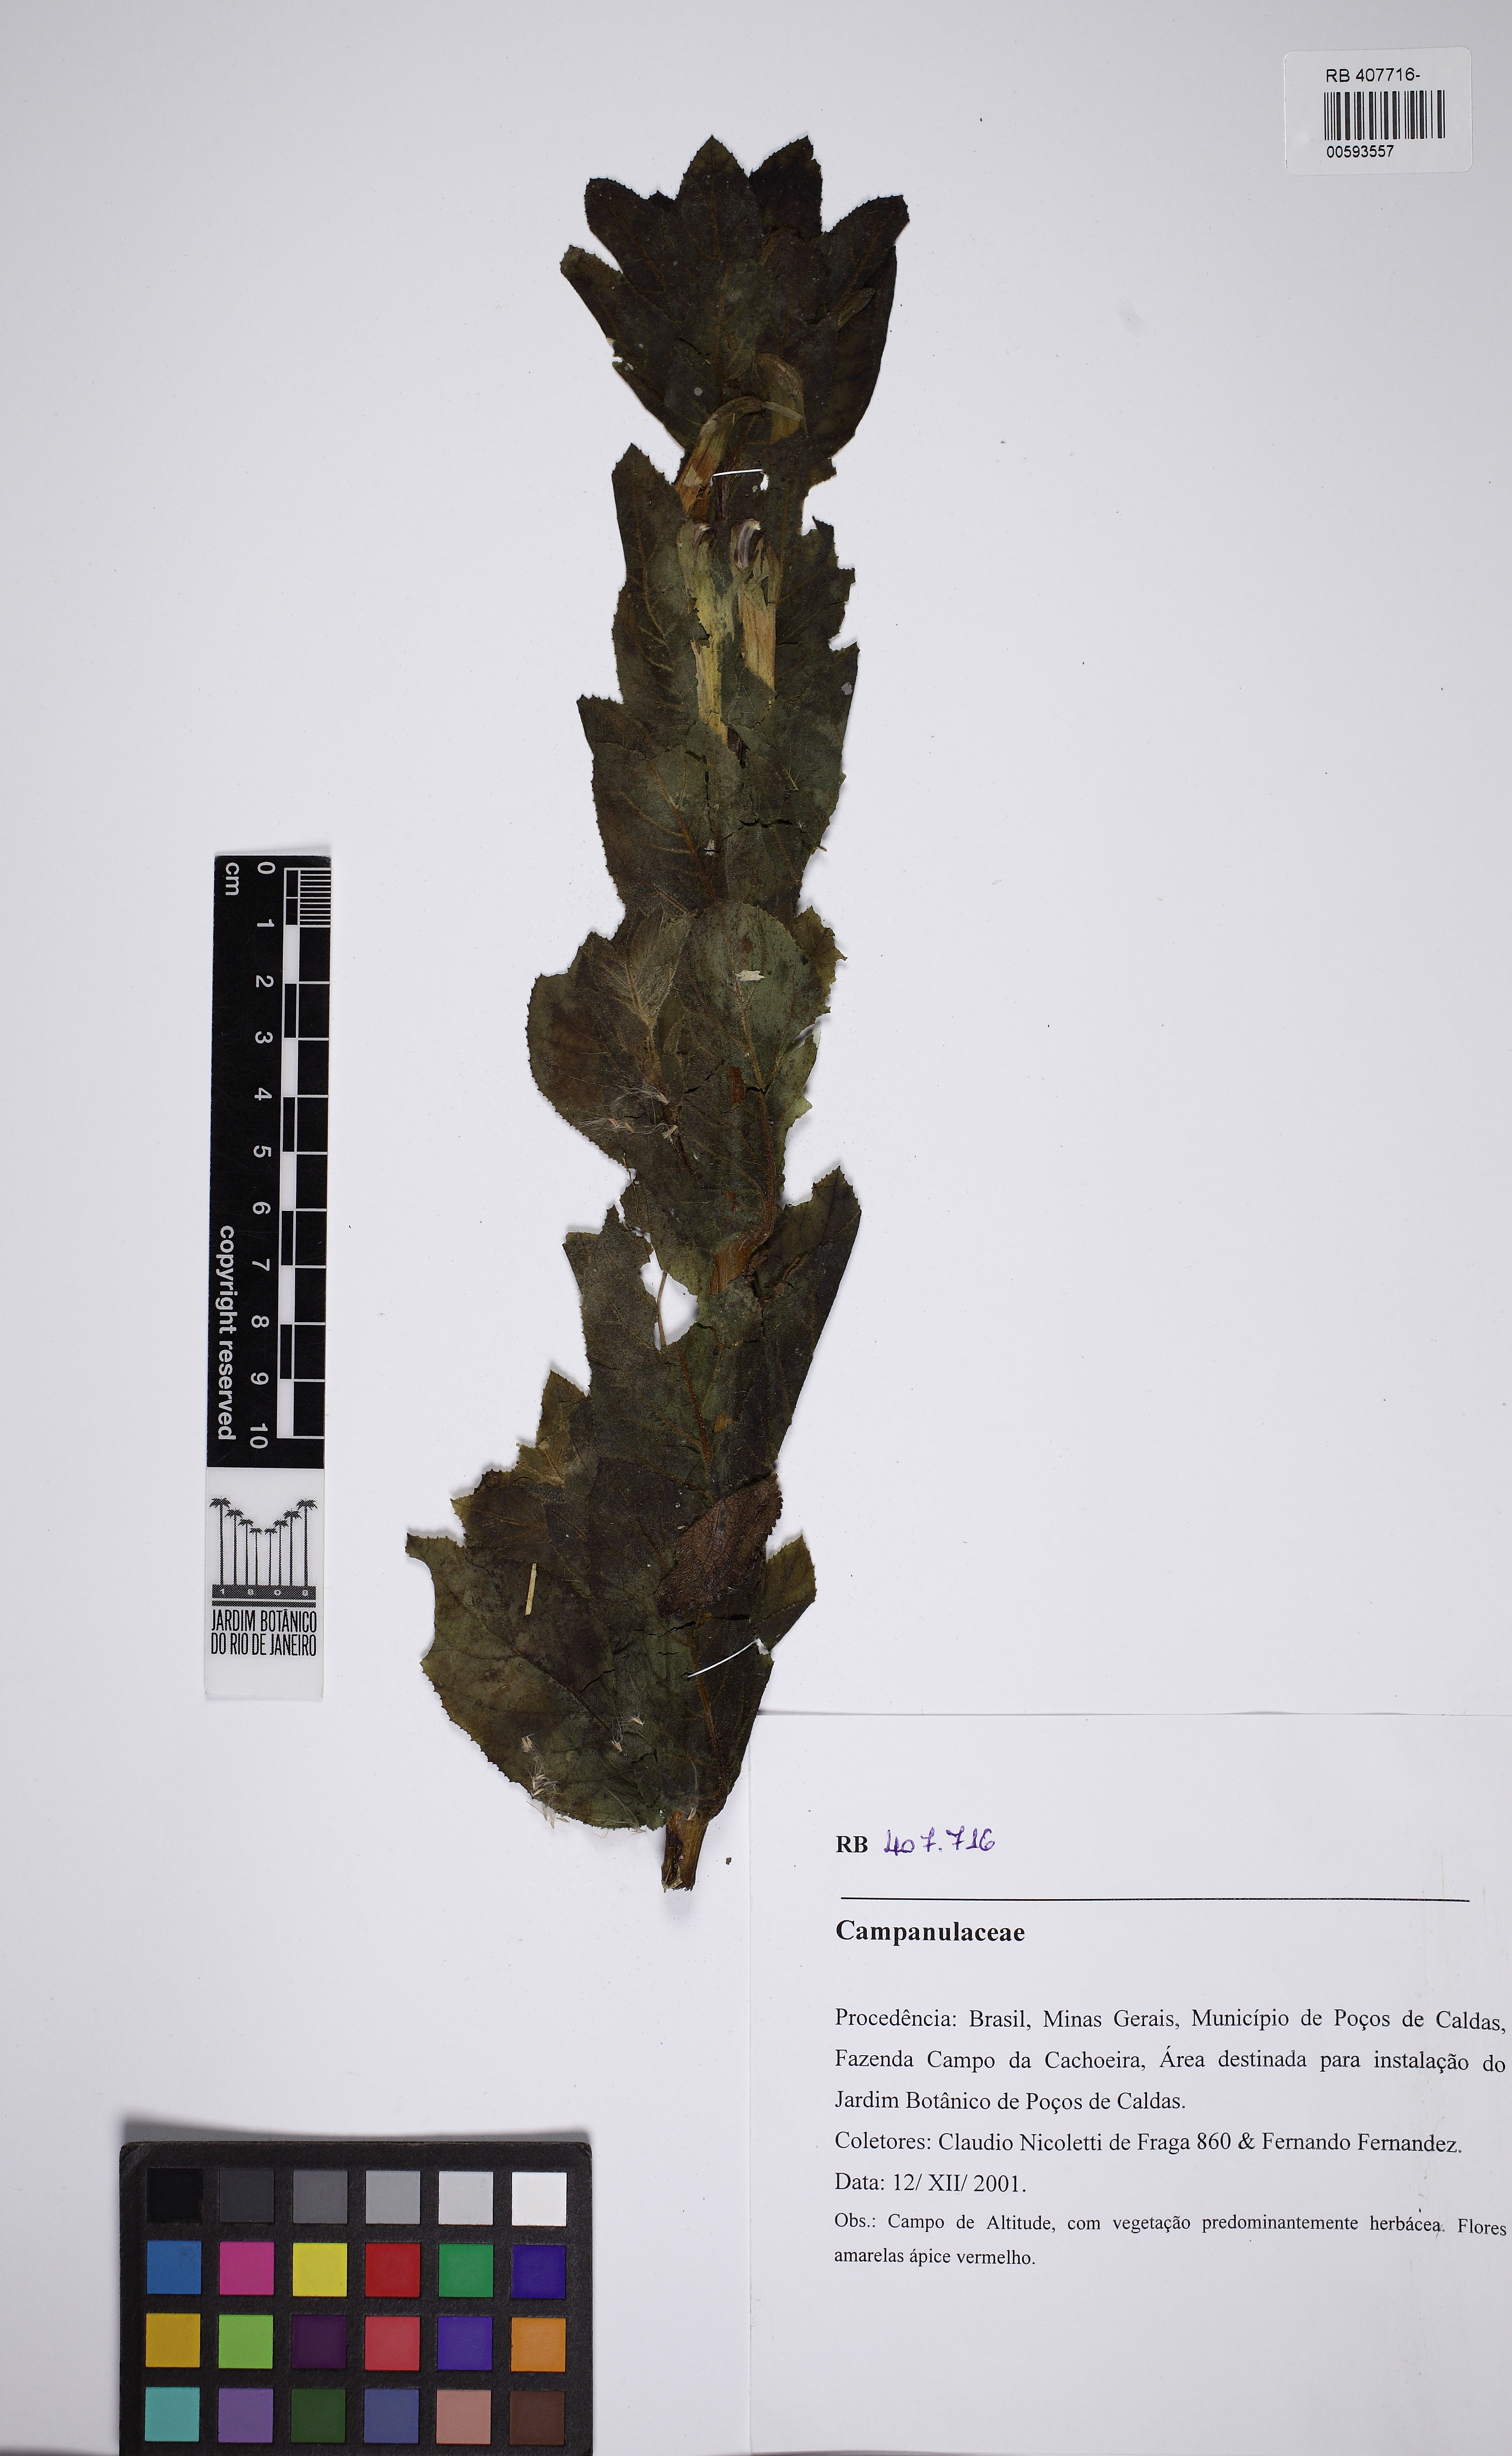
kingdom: Plantae
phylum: Tracheophyta
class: Magnoliopsida
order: Asterales
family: Campanulaceae
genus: Siphocampylus
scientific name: Siphocampylus macropodus
